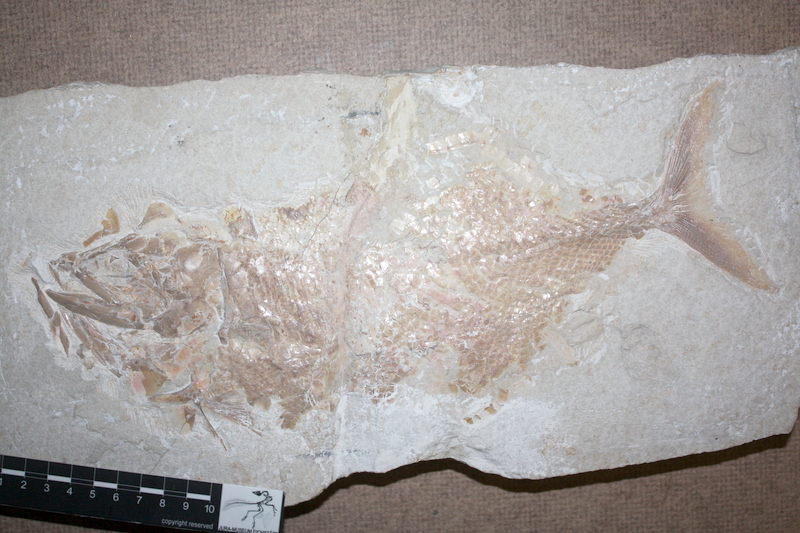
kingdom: Animalia
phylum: Chordata
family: Ankylophoridae
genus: Siemensichthys
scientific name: Siemensichthys macrocephalus
